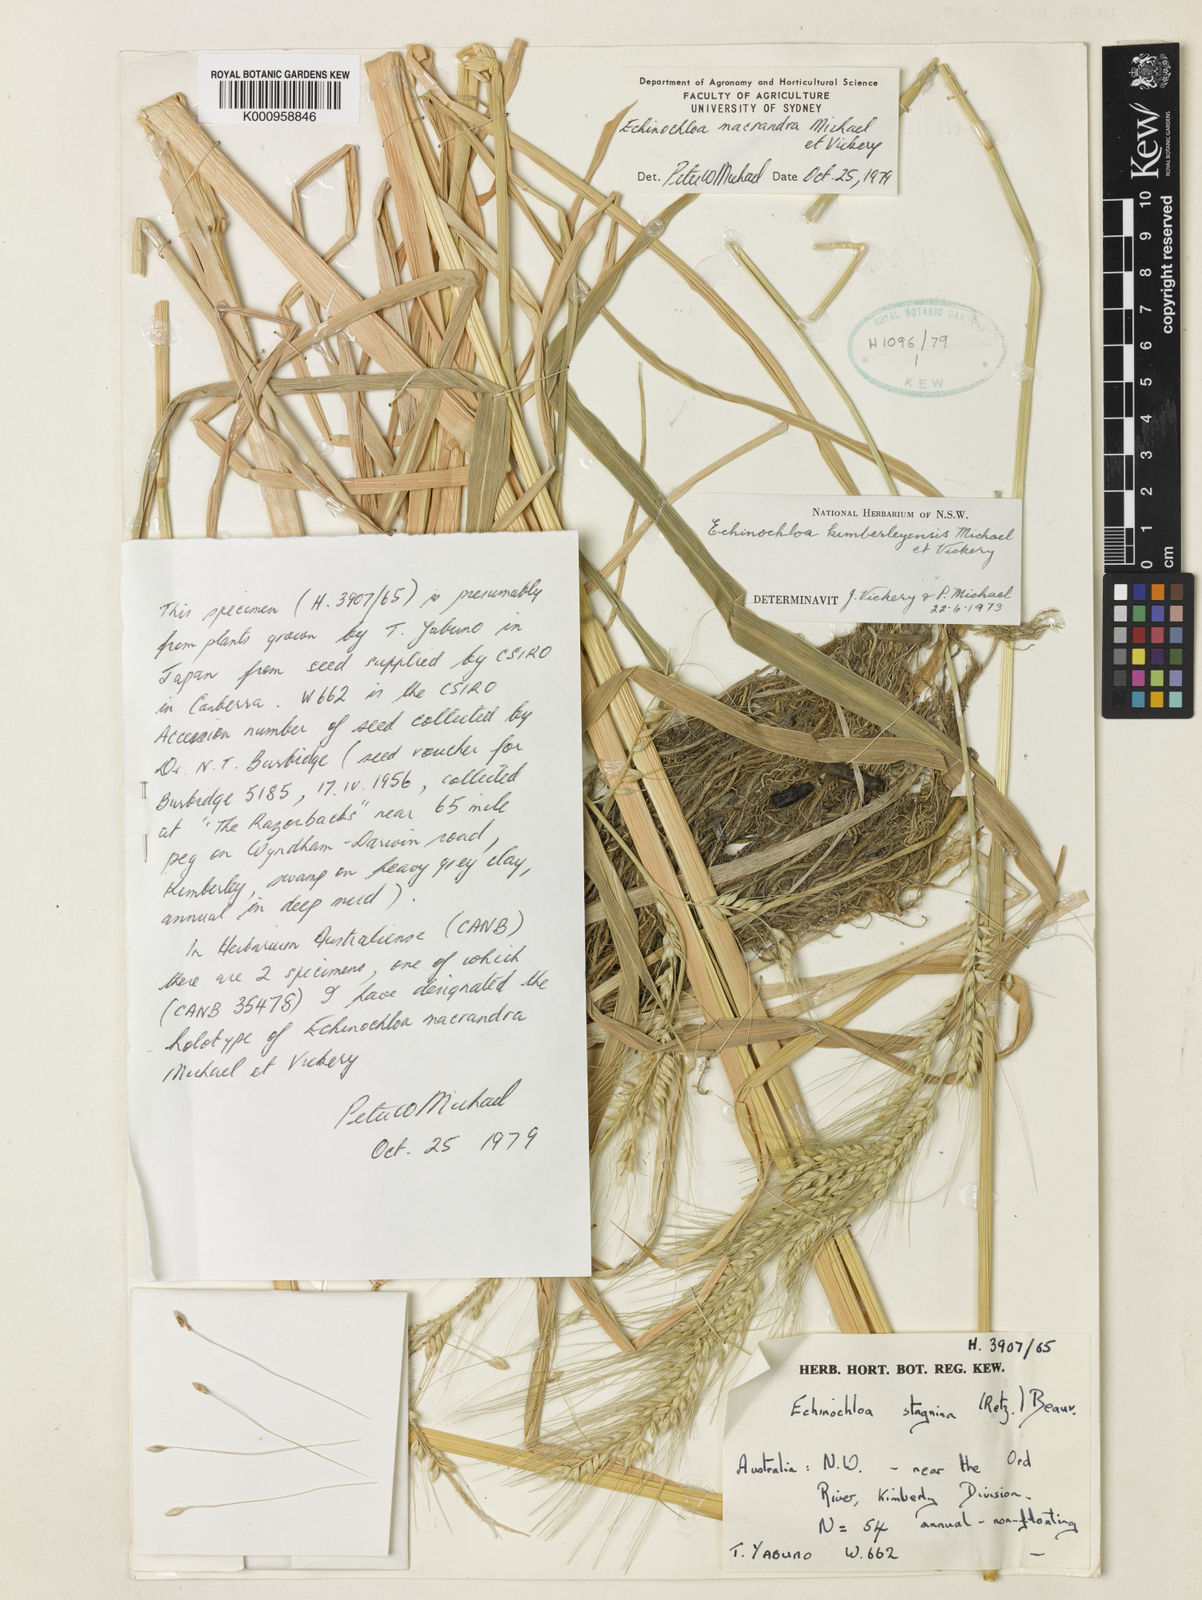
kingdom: Plantae
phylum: Tracheophyta
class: Liliopsida
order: Poales
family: Poaceae
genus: Echinochloa
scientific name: Echinochloa kimberleyensis
